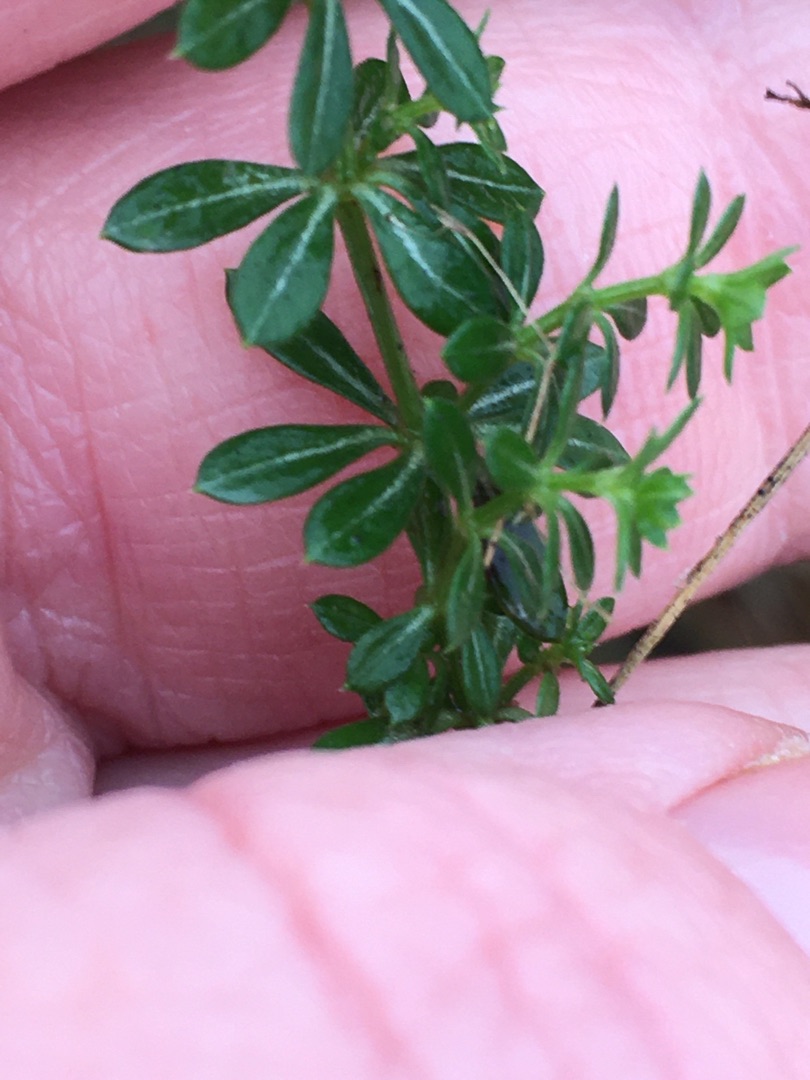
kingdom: Plantae
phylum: Tracheophyta
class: Magnoliopsida
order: Gentianales
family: Rubiaceae
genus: Galium
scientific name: Galium saxatile
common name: Lyng-snerre
